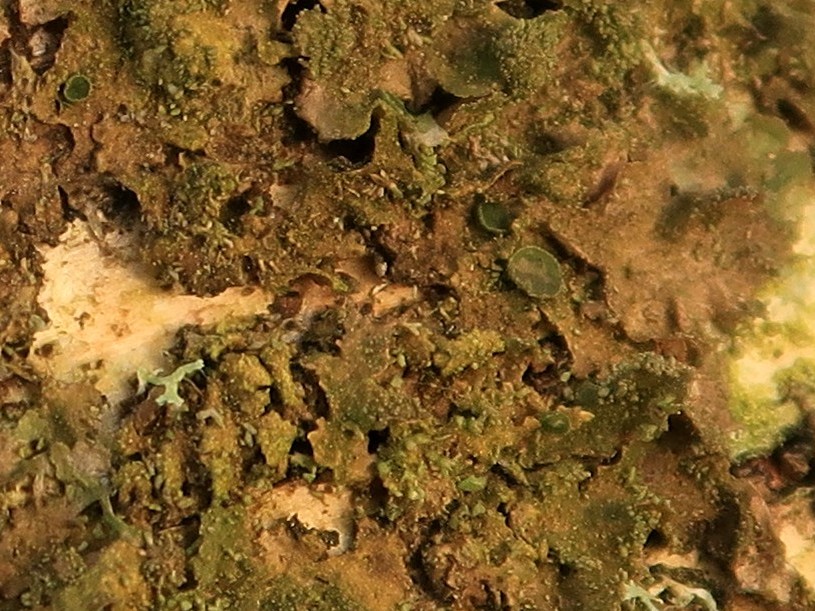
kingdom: Fungi
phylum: Ascomycota
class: Lecanoromycetes
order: Lecanorales
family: Parmeliaceae
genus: Melanohalea
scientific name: Melanohalea exasperatula
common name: kølle-skållav
